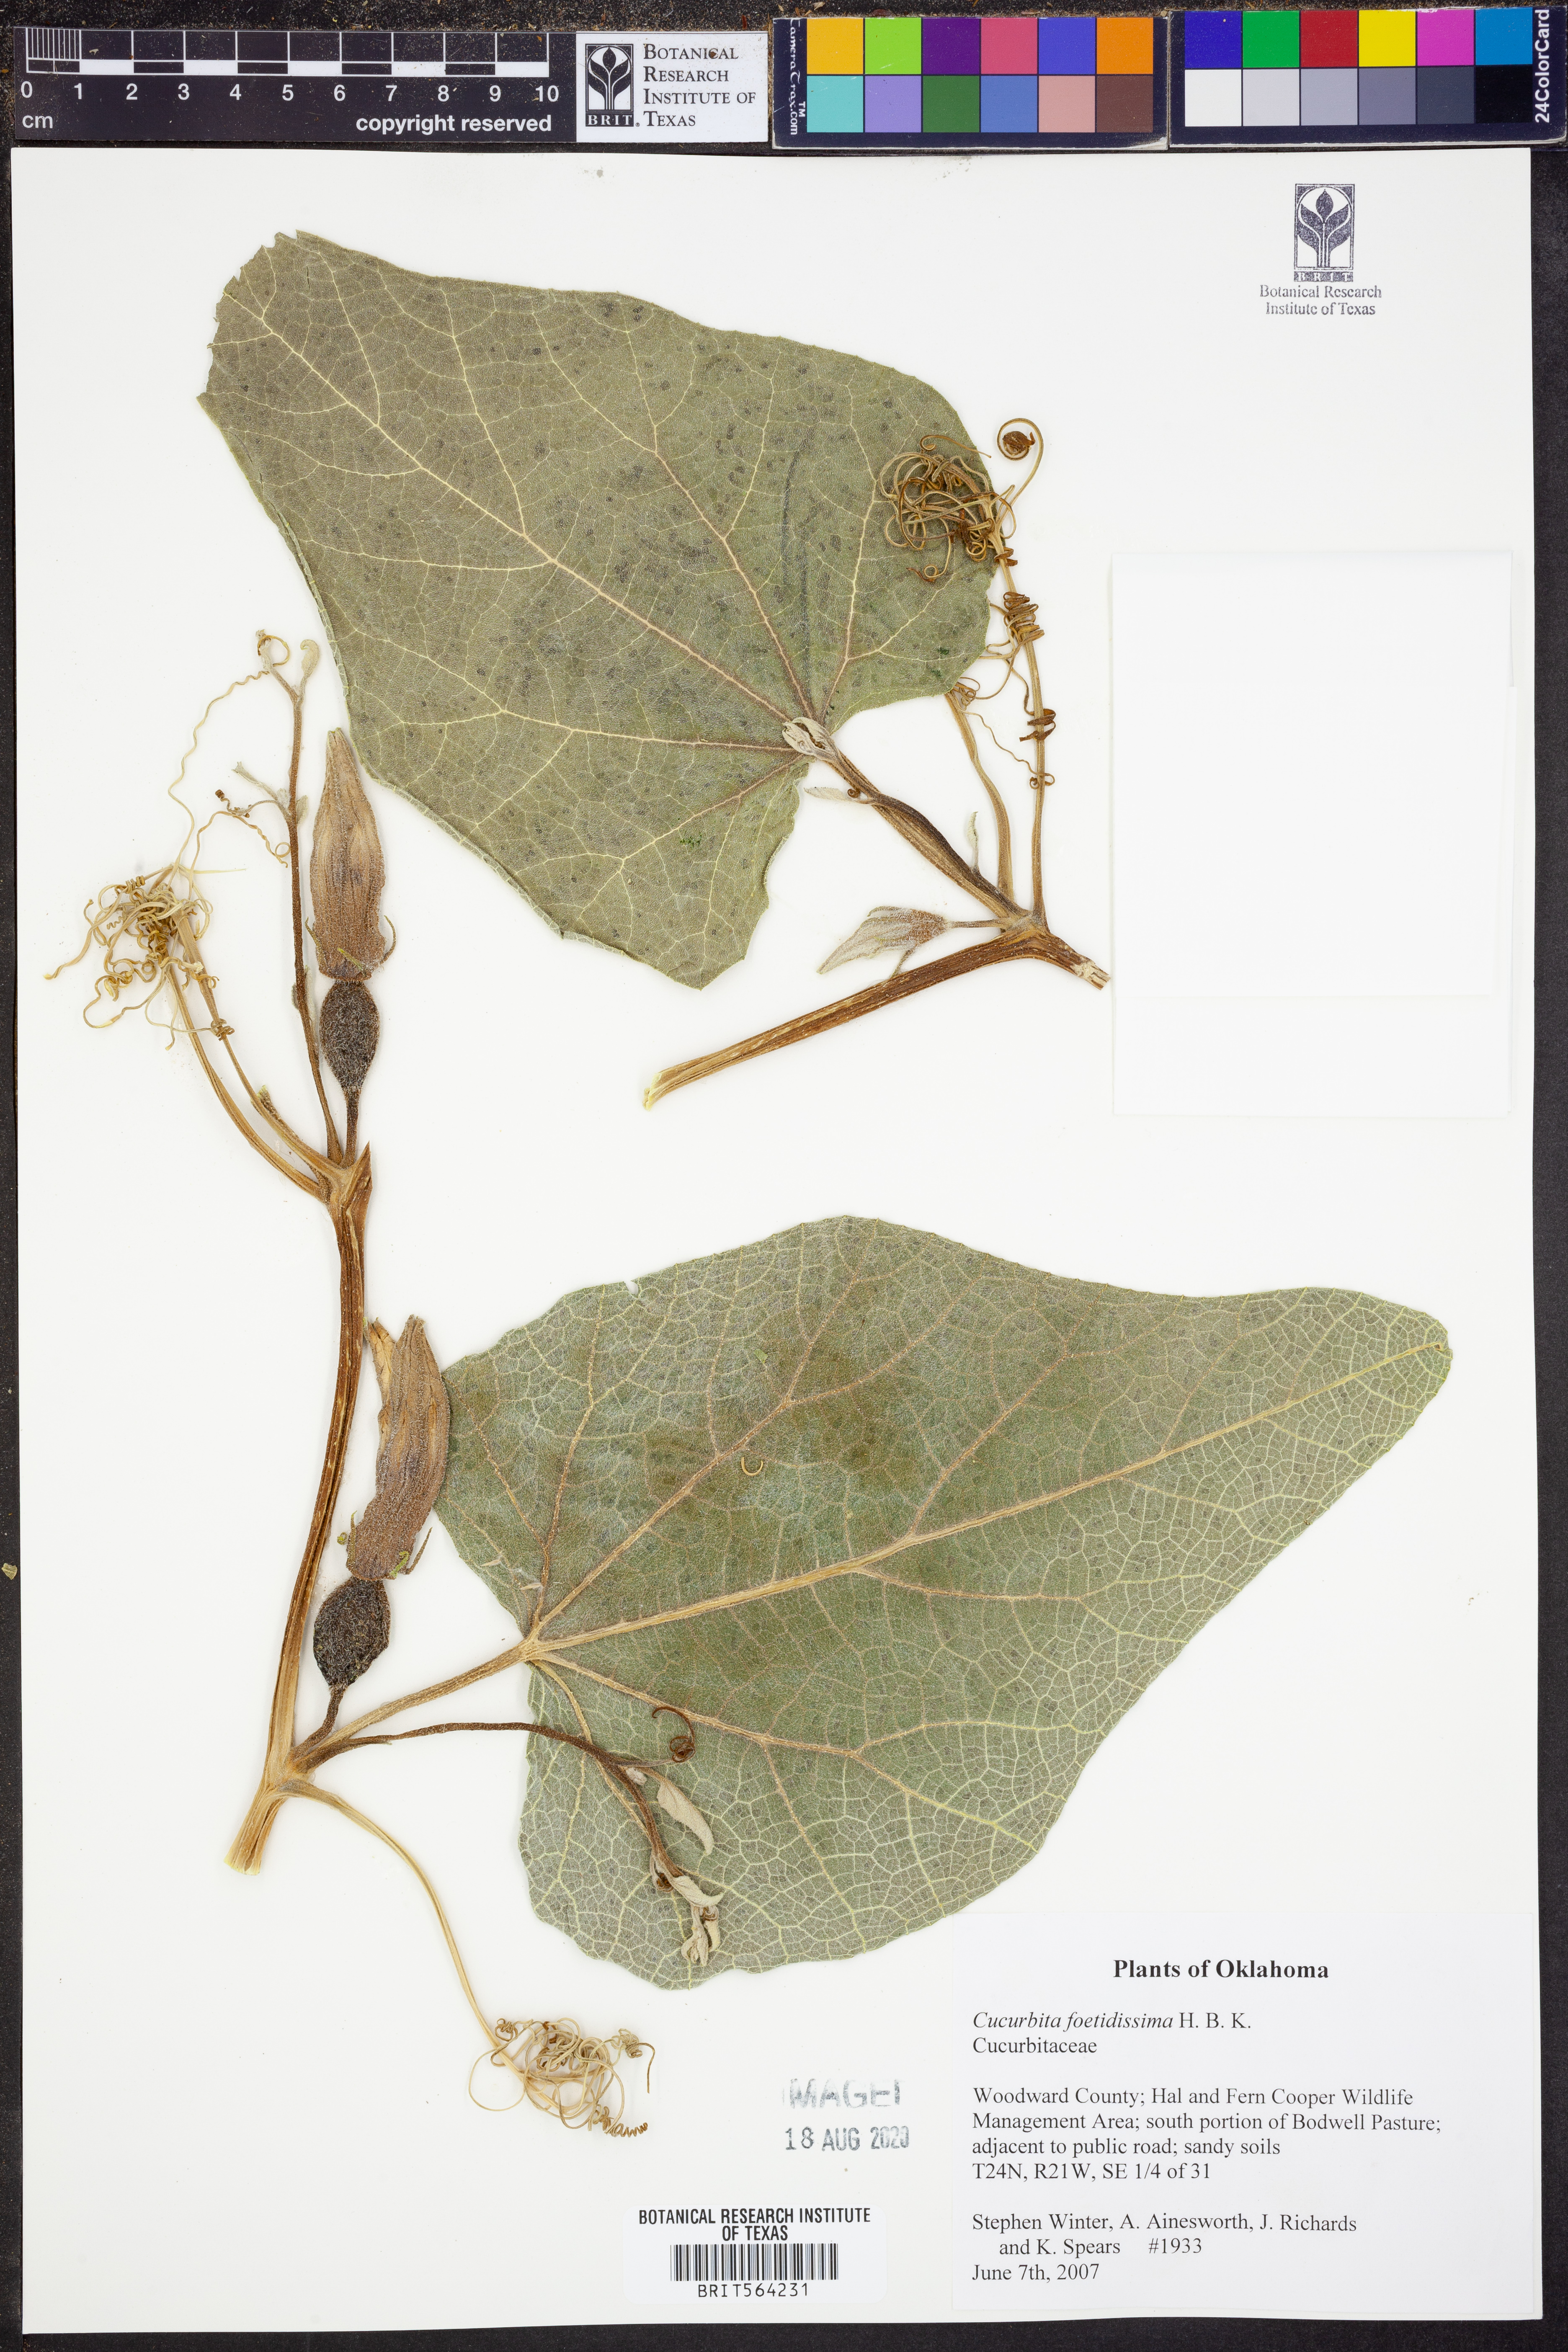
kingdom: Plantae
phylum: Tracheophyta
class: Magnoliopsida
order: Cucurbitales
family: Cucurbitaceae
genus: Cucurbita
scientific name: Cucurbita foetidissima
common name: Buffalo gourd
